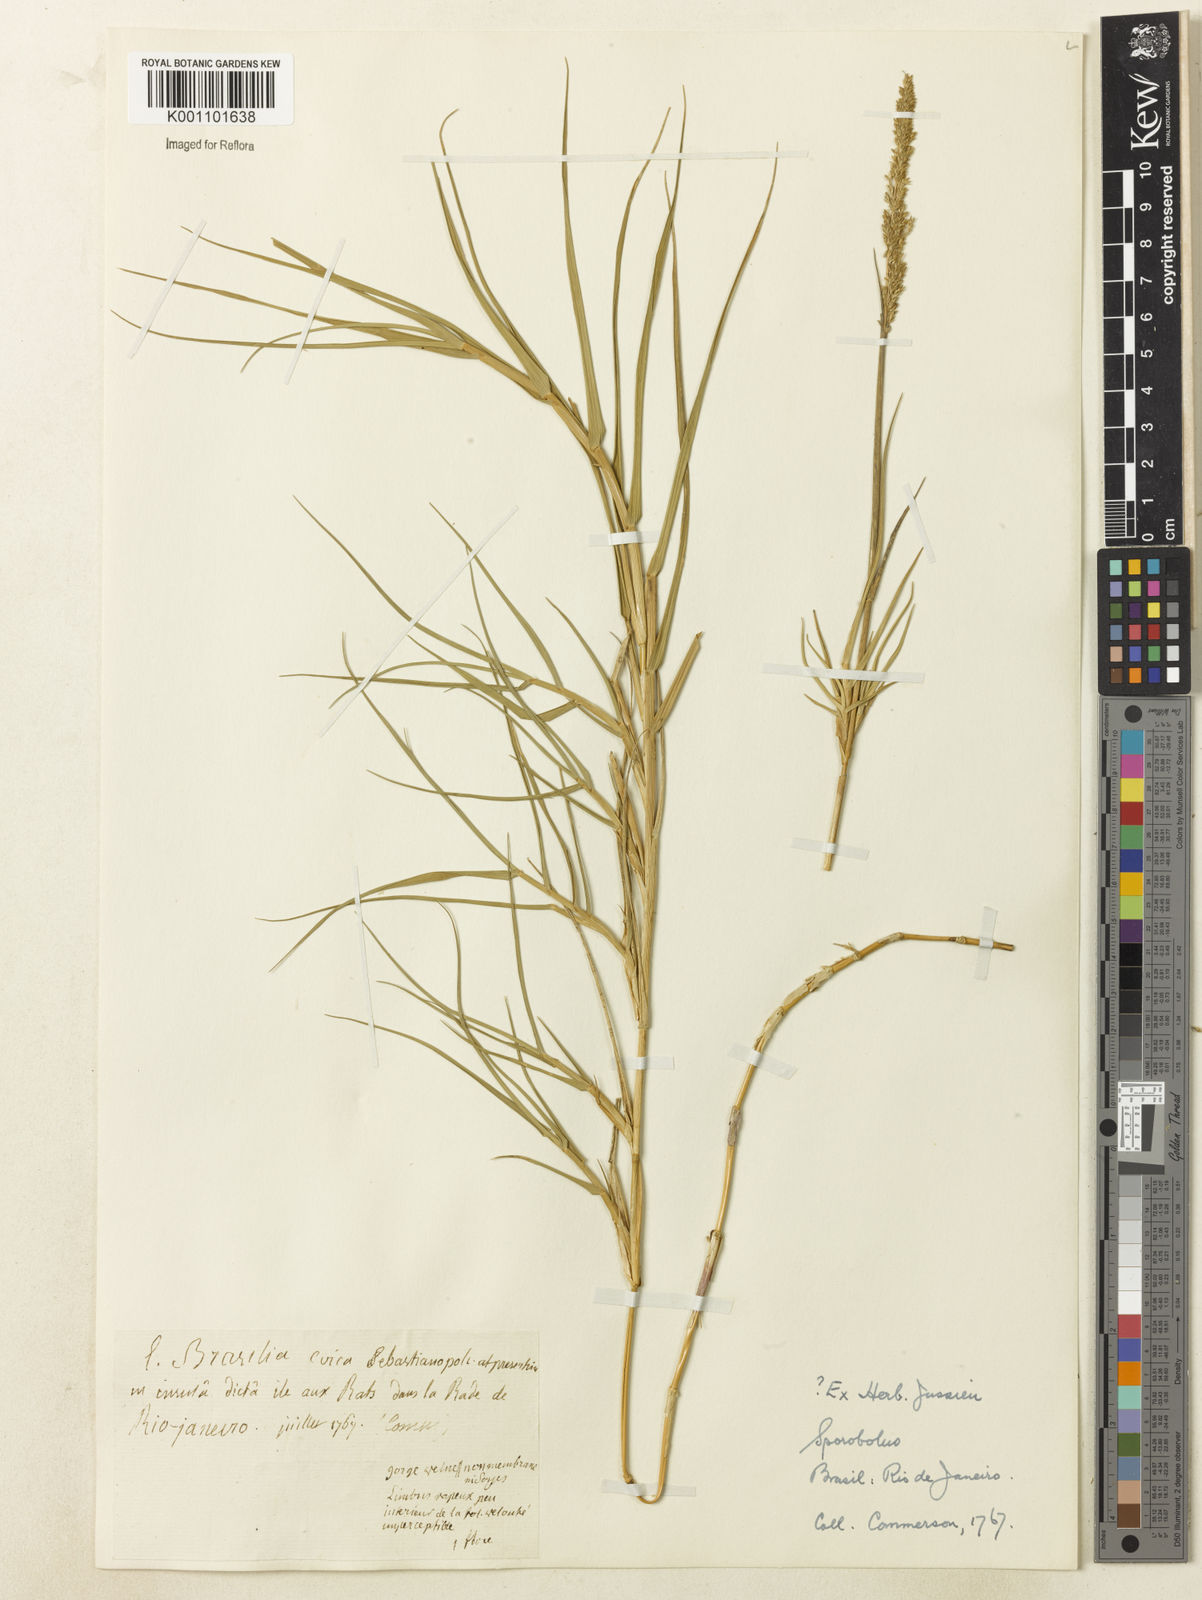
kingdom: Plantae
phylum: Tracheophyta
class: Liliopsida
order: Poales
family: Poaceae
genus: Sporobolus
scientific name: Sporobolus virginicus
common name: Beach dropseed
